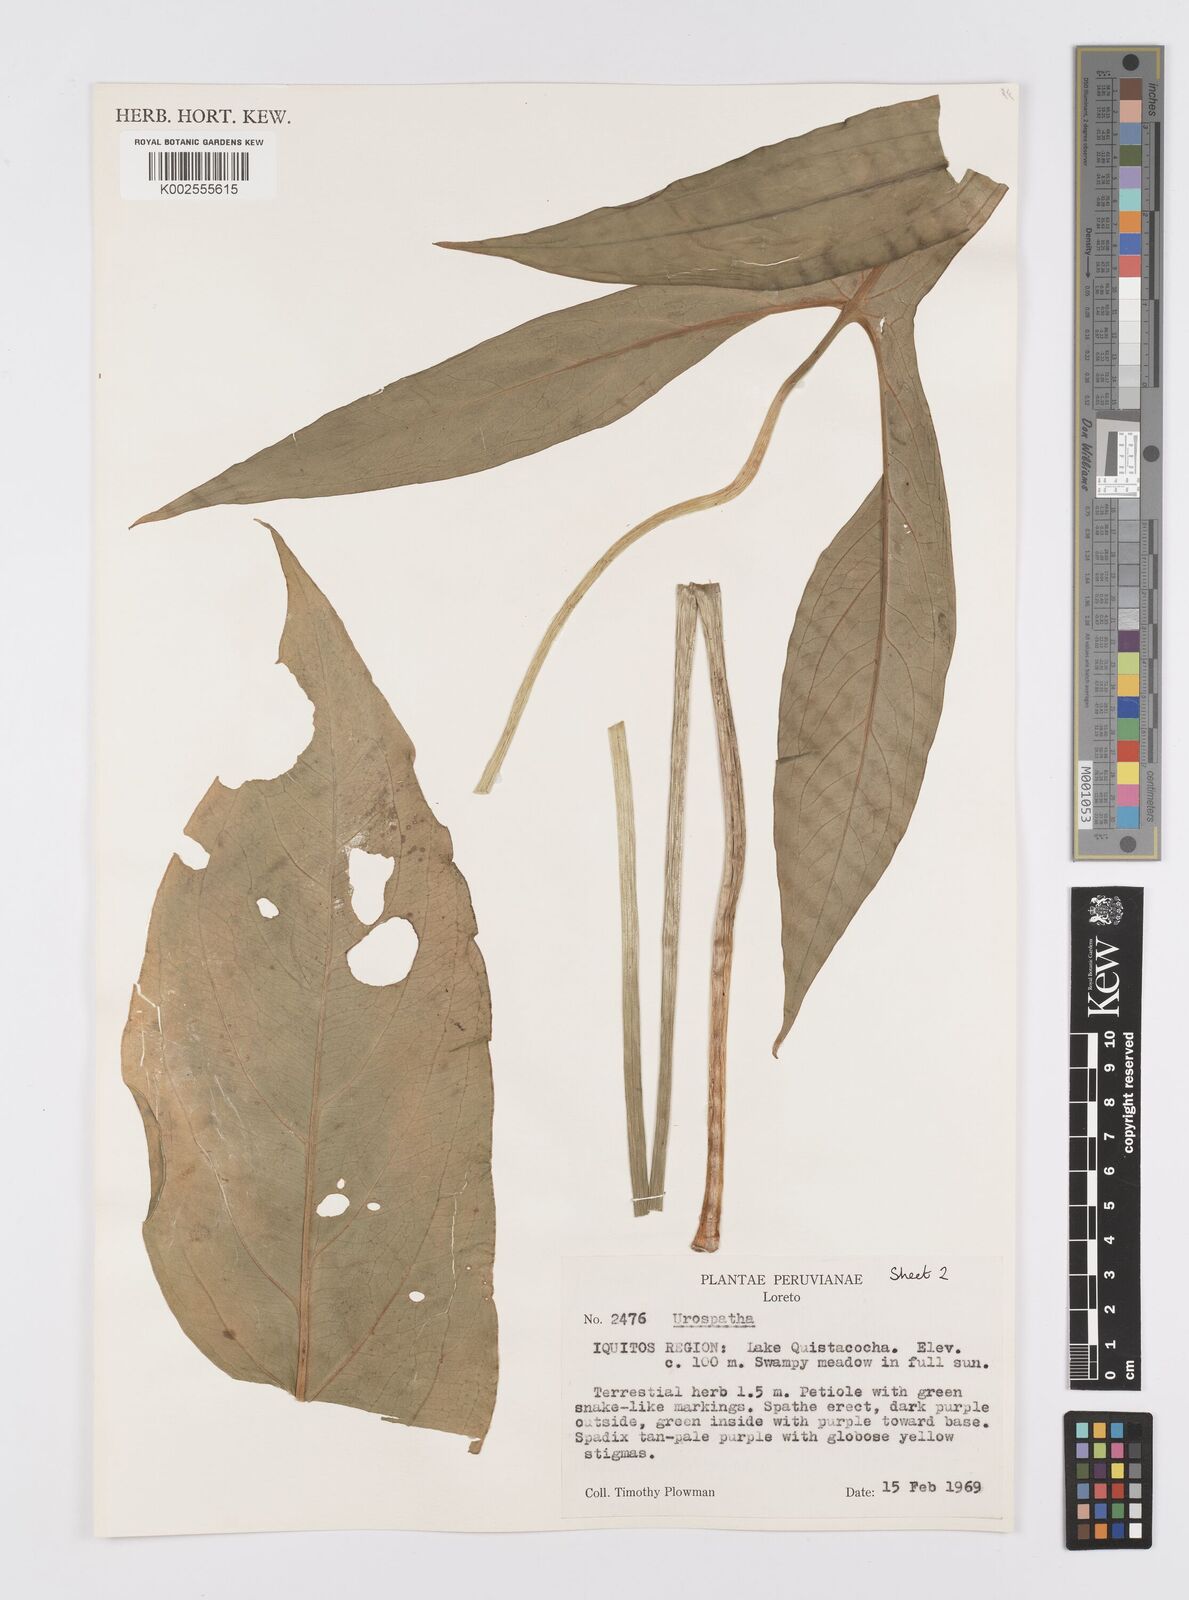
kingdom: Plantae
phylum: Tracheophyta
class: Liliopsida
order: Alismatales
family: Araceae
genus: Urospatha
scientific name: Urospatha
